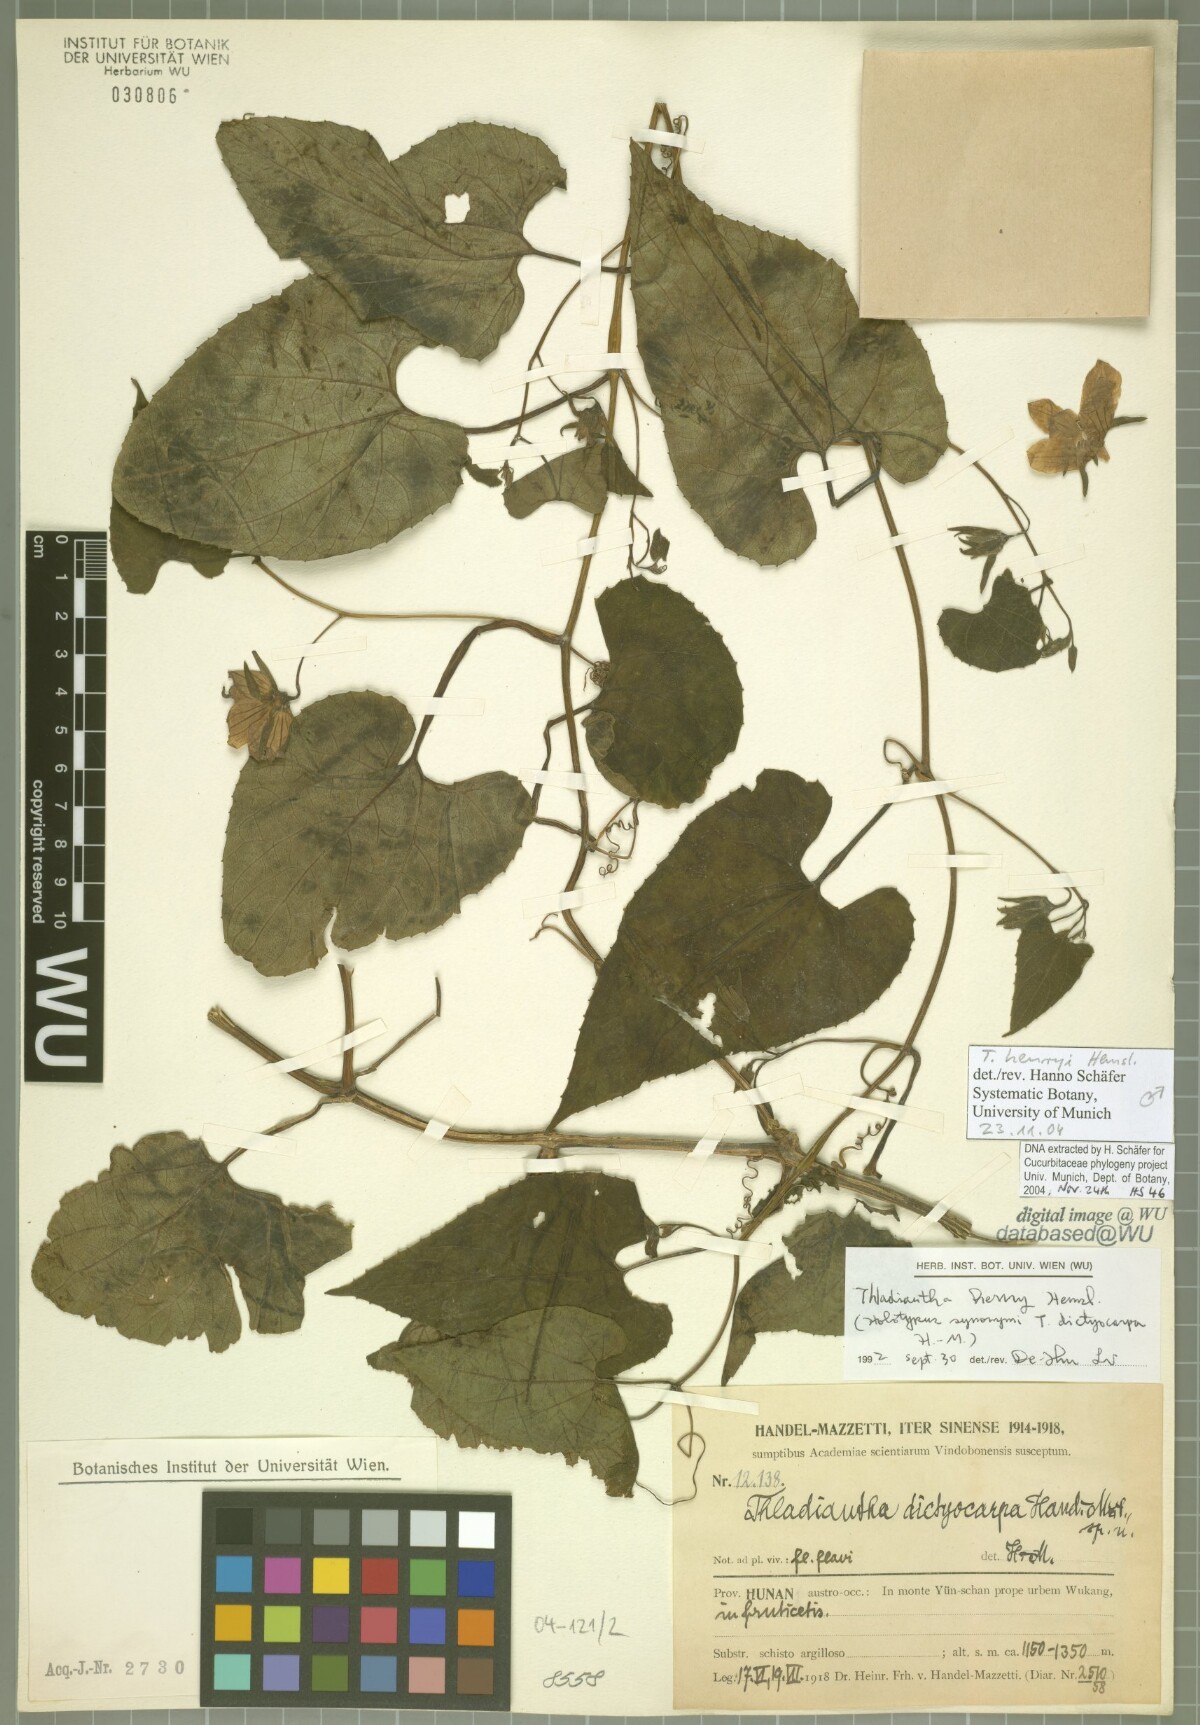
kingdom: Plantae
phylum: Tracheophyta
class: Magnoliopsida
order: Cucurbitales
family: Cucurbitaceae
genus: Thladiantha
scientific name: Thladiantha henryi
